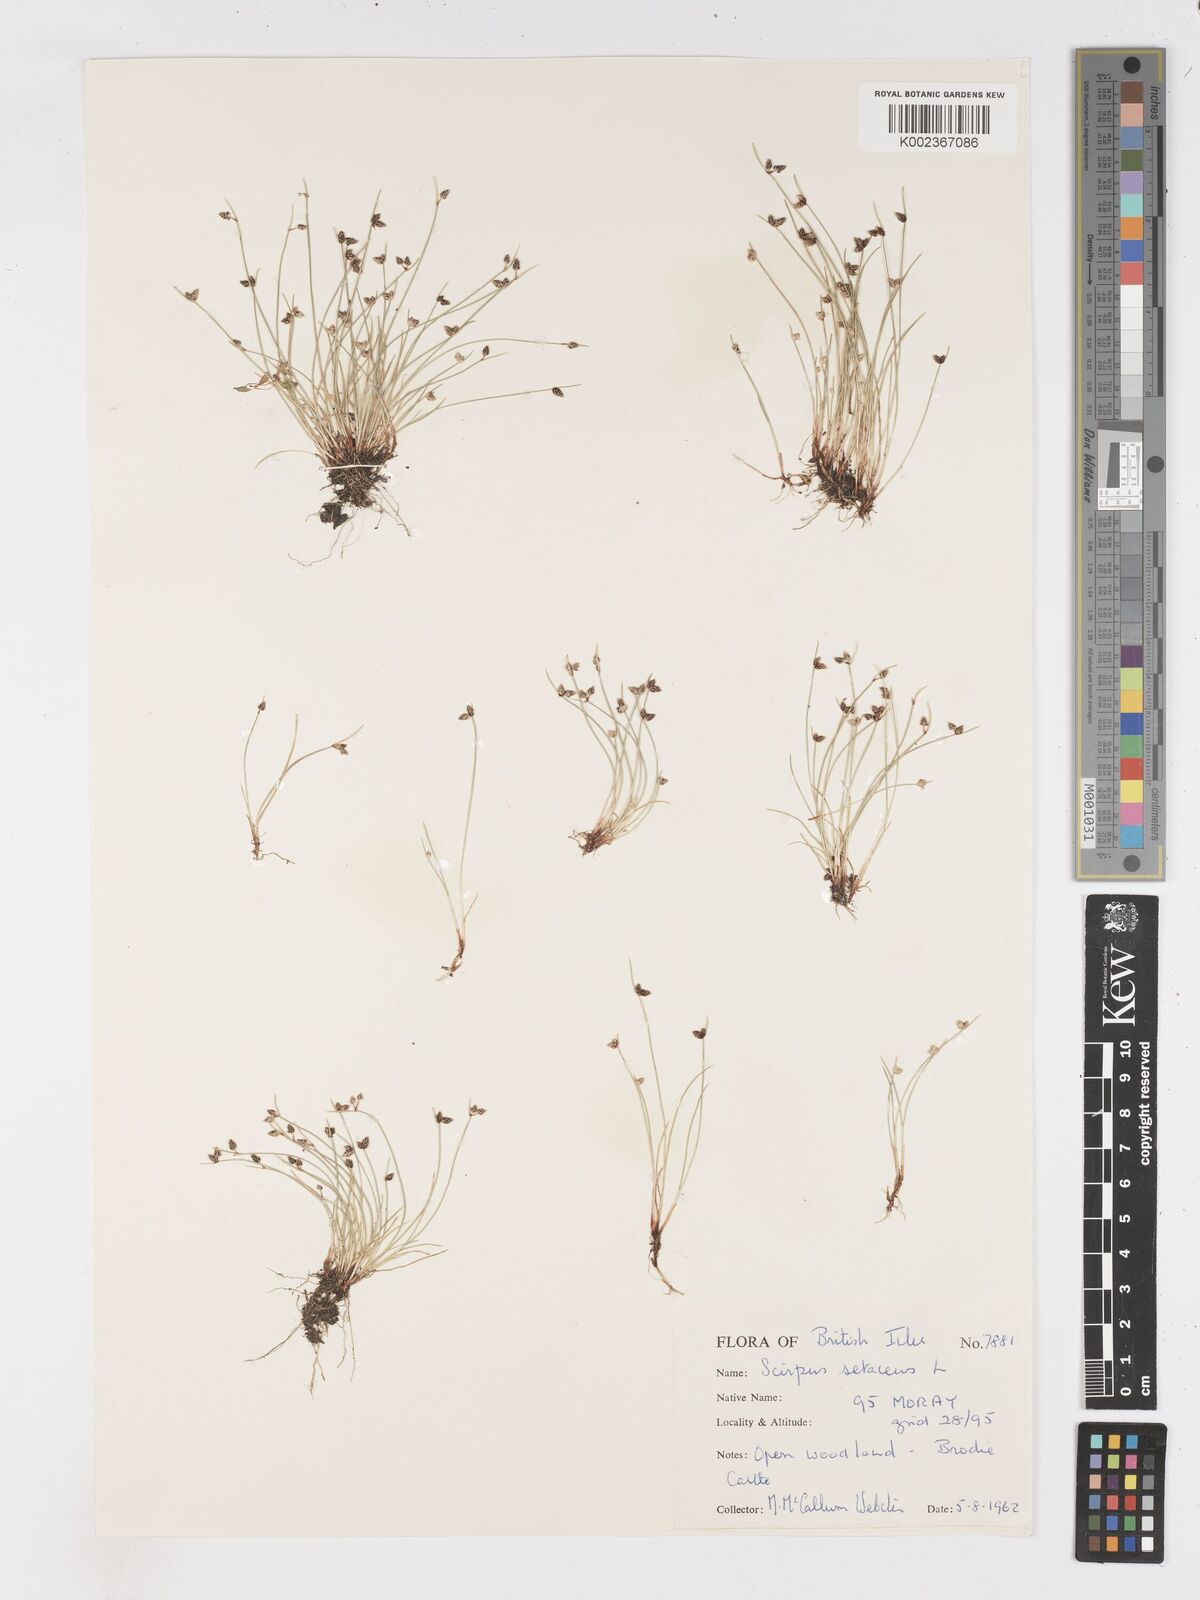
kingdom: Plantae
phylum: Tracheophyta
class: Liliopsida
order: Poales
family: Cyperaceae
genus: Isolepis
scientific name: Isolepis setacea
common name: Bristle club-rush
